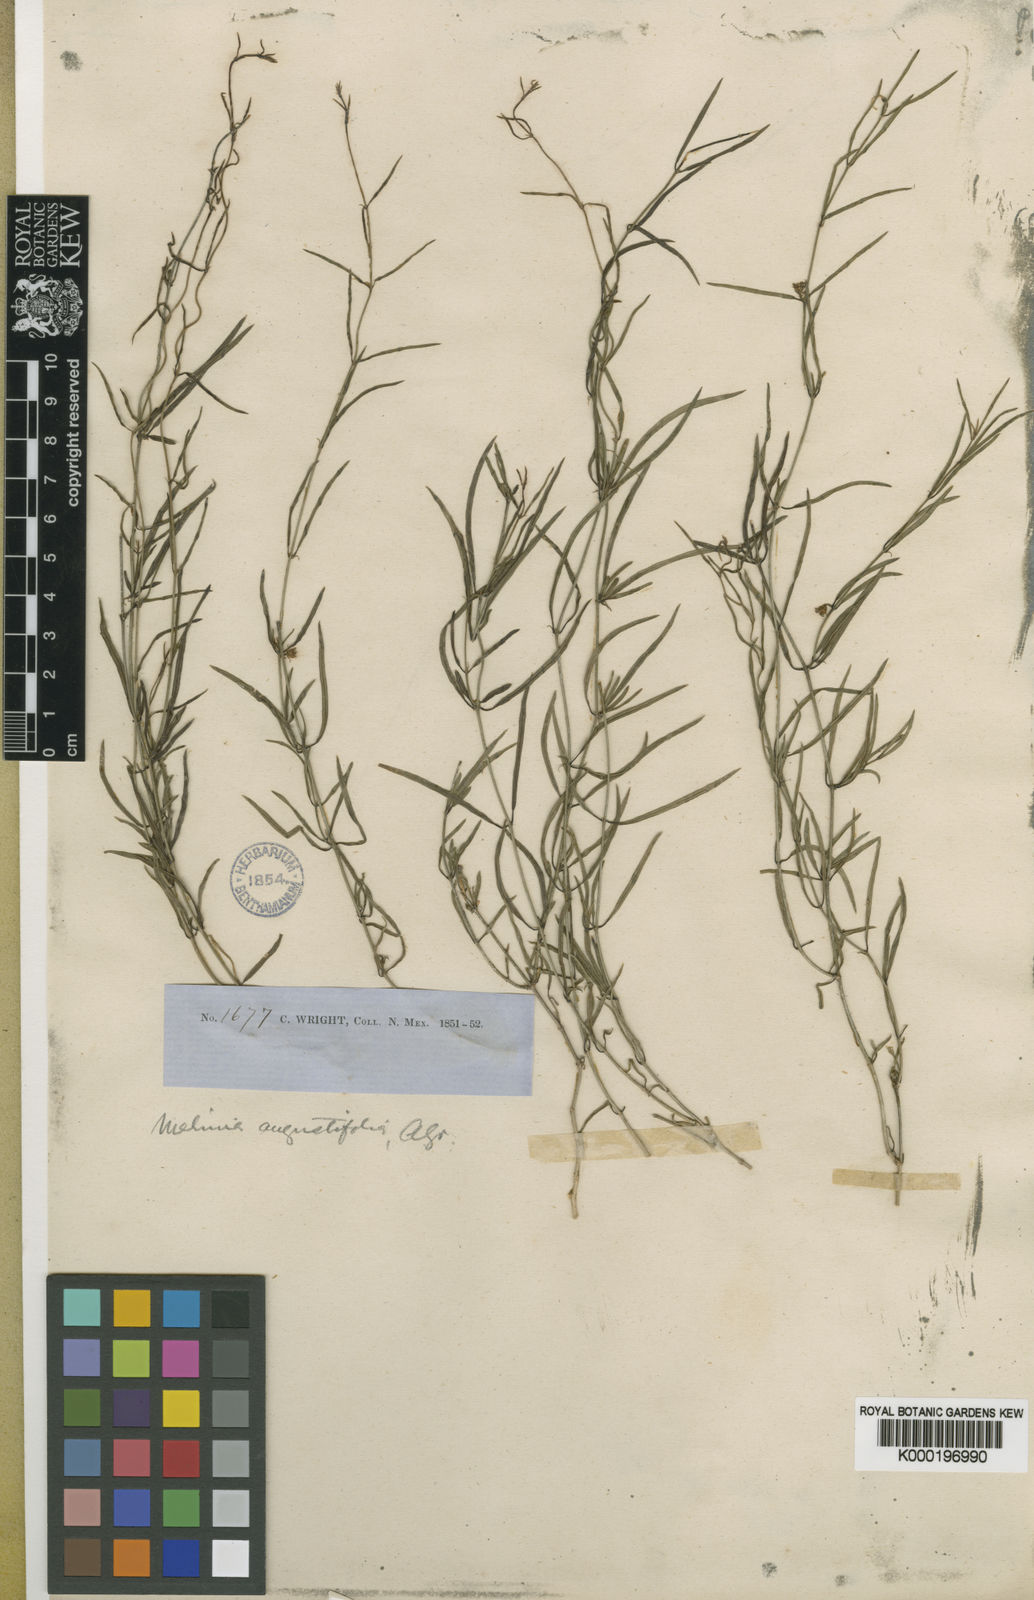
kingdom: Plantae
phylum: Tracheophyta
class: Magnoliopsida
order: Gentianales
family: Apocynaceae
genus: Metastelma
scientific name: Metastelma mexicanum
